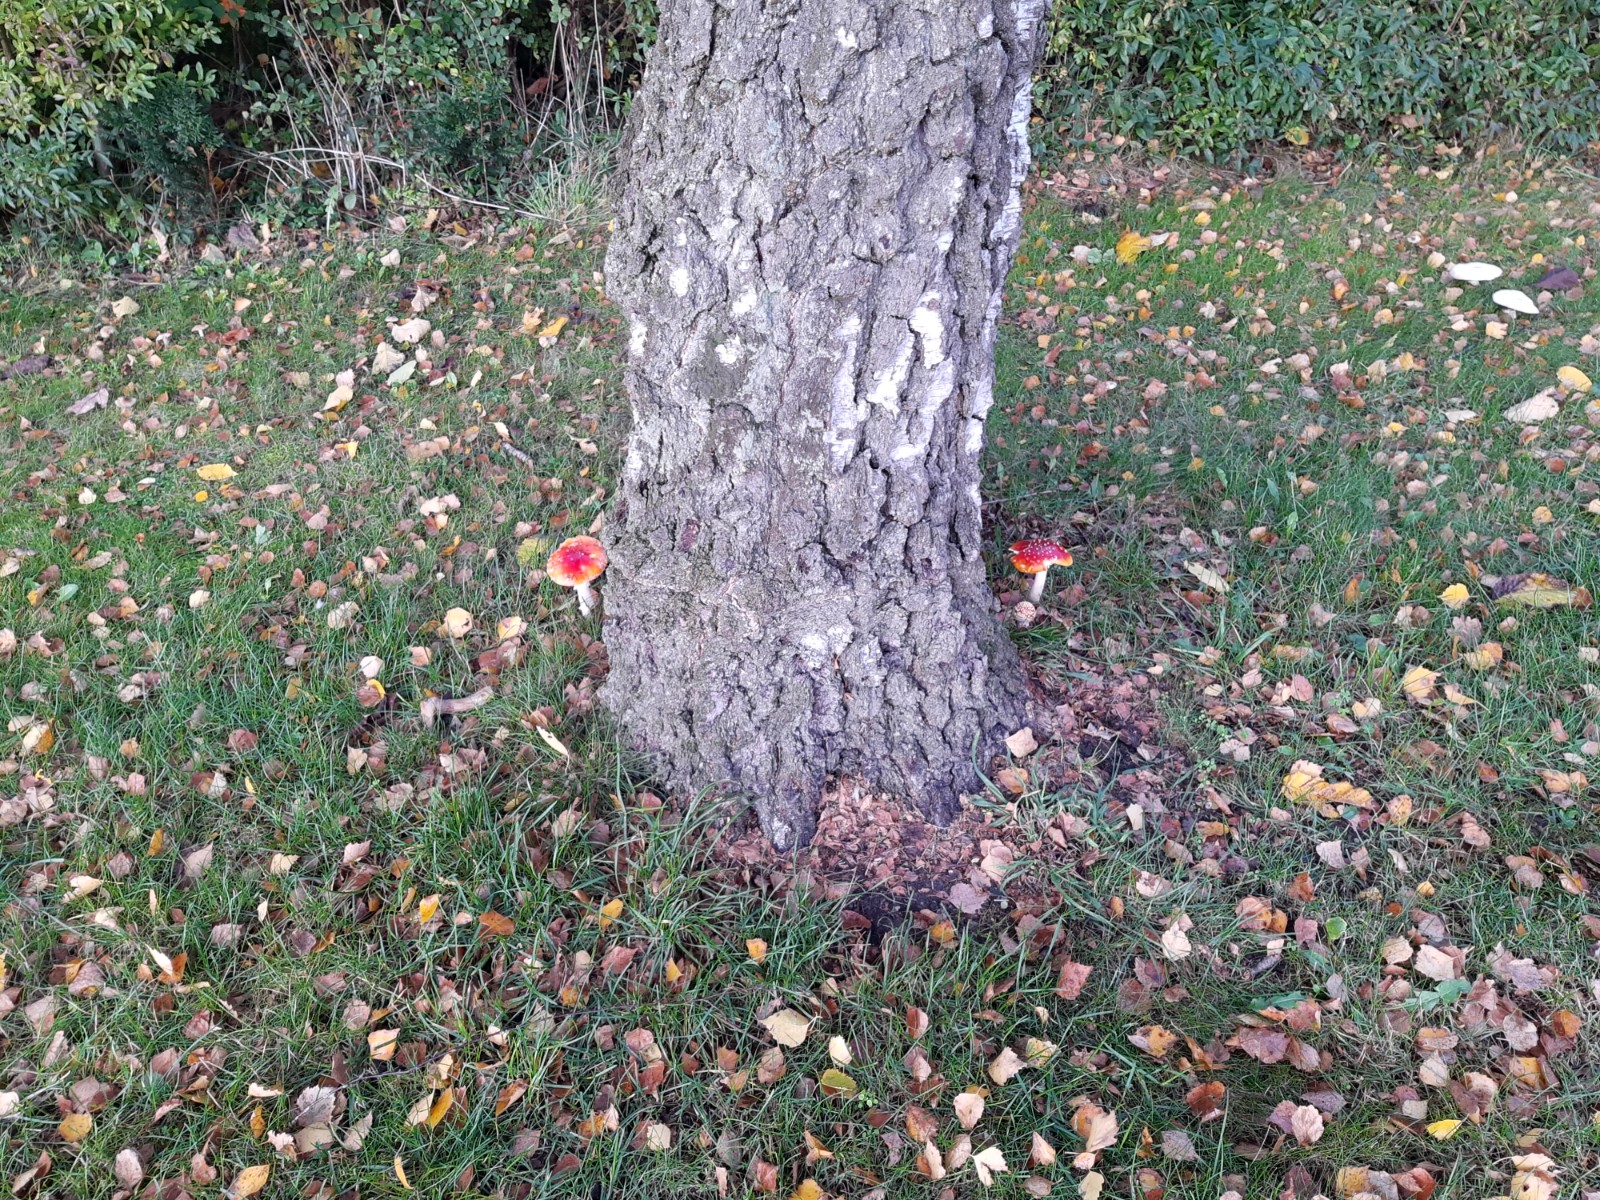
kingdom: Fungi
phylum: Basidiomycota
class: Agaricomycetes
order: Agaricales
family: Amanitaceae
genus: Amanita
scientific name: Amanita muscaria
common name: rød fluesvamp
